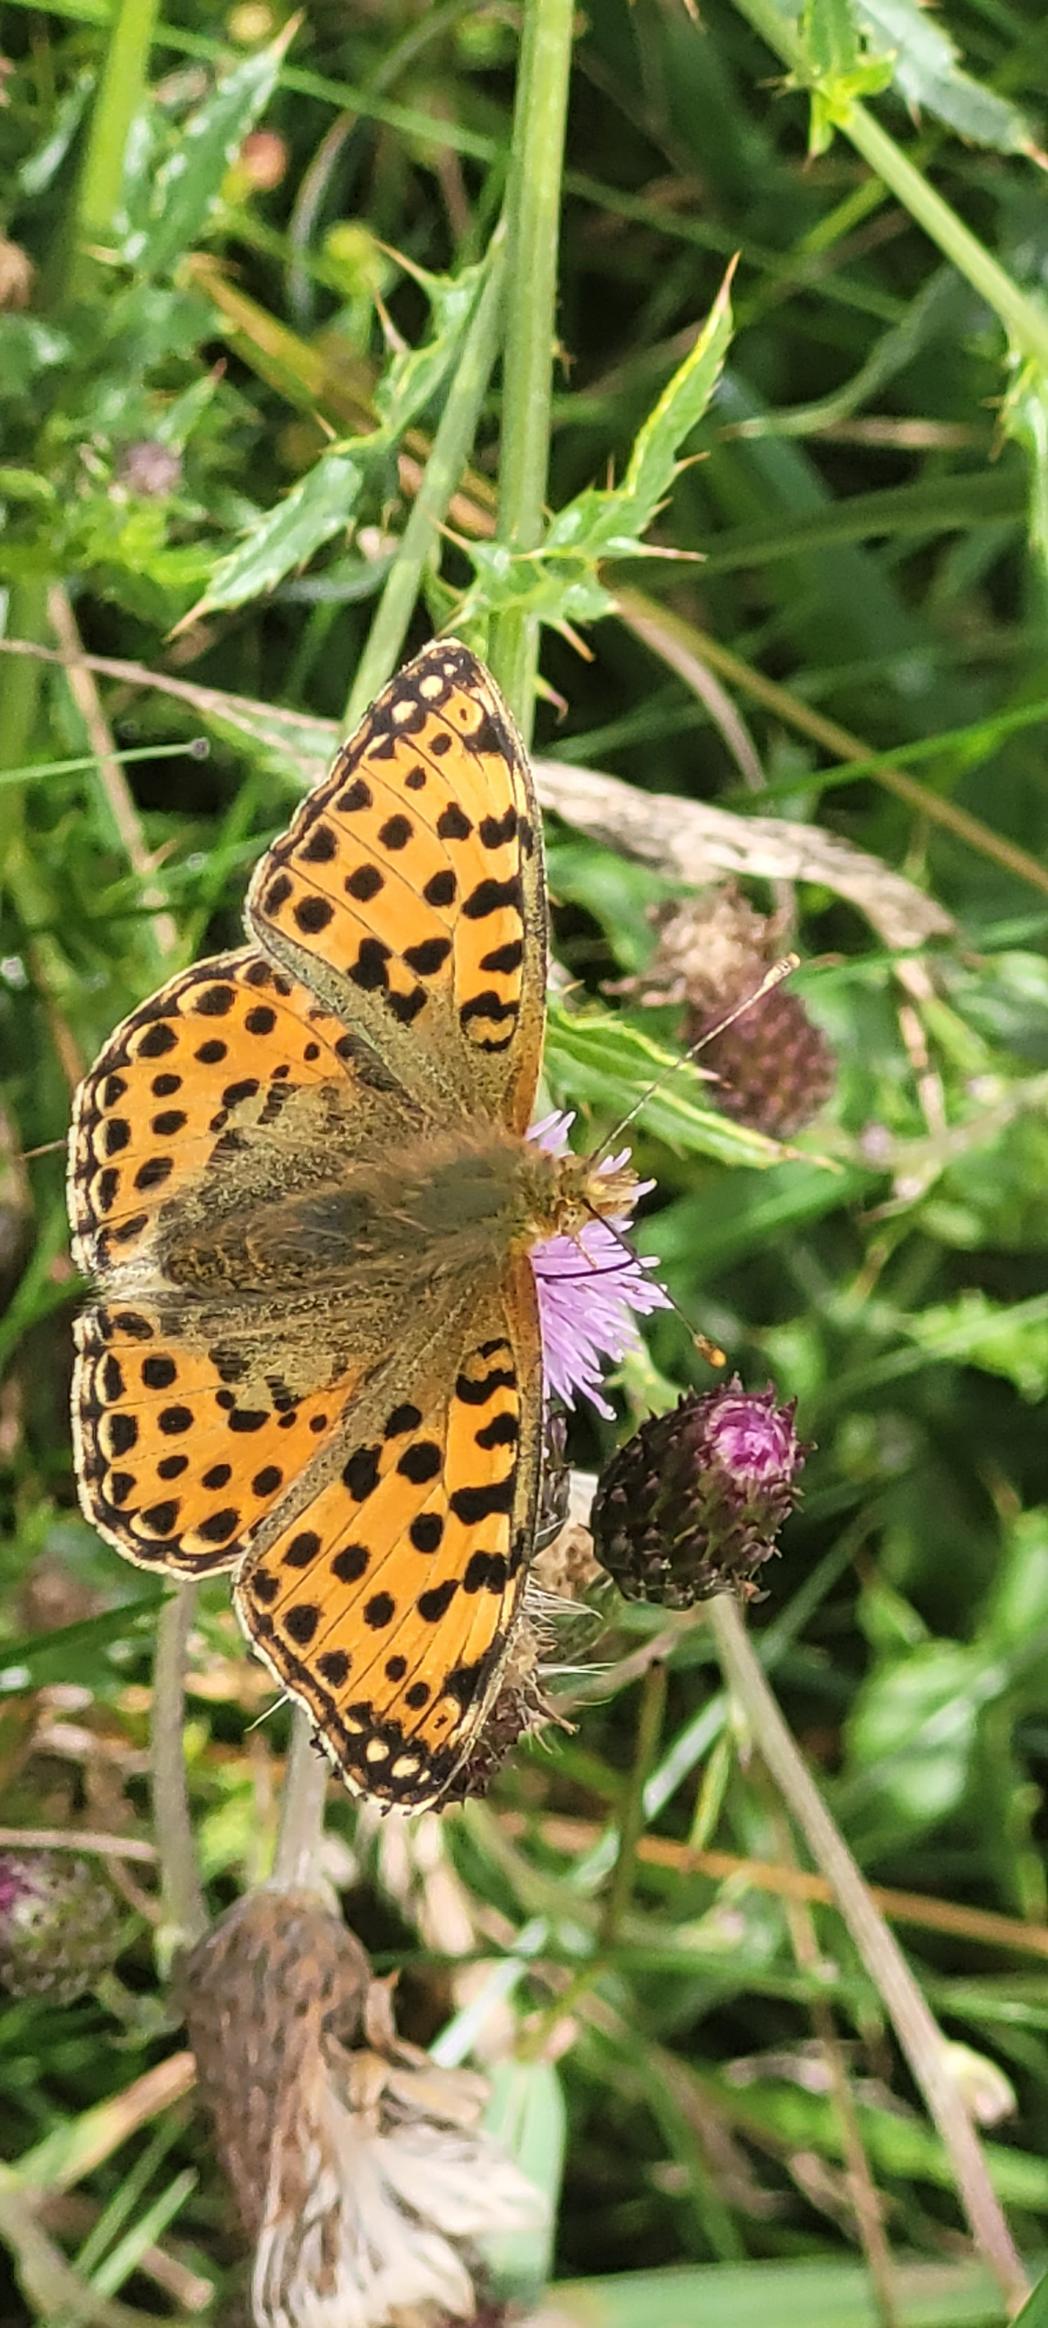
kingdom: Animalia
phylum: Arthropoda
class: Insecta
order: Lepidoptera
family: Nymphalidae
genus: Issoria
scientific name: Issoria lathonia
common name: Storplettet perlemorsommerfugl
